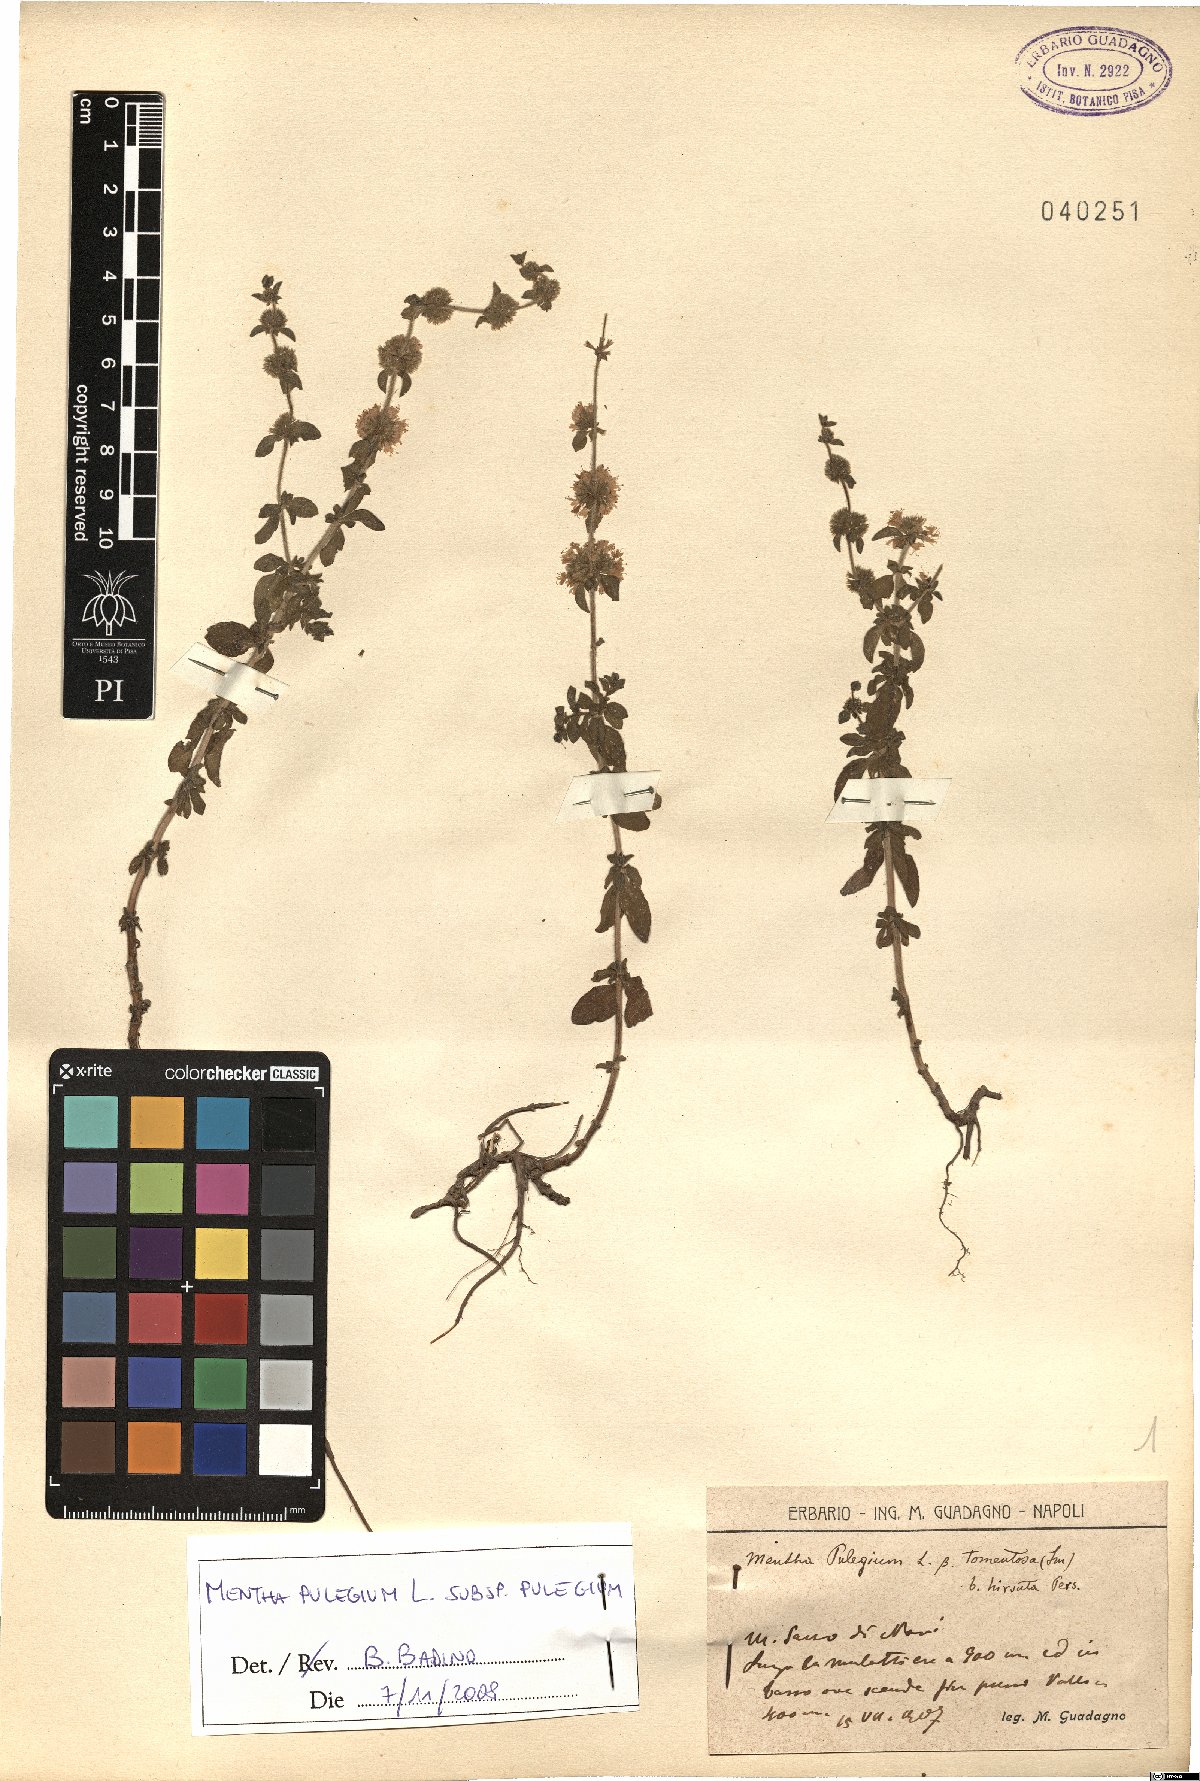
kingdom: Plantae
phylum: Tracheophyta
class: Magnoliopsida
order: Lamiales
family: Lamiaceae
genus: Mentha
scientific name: Mentha pulegium
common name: Pennyroyal
